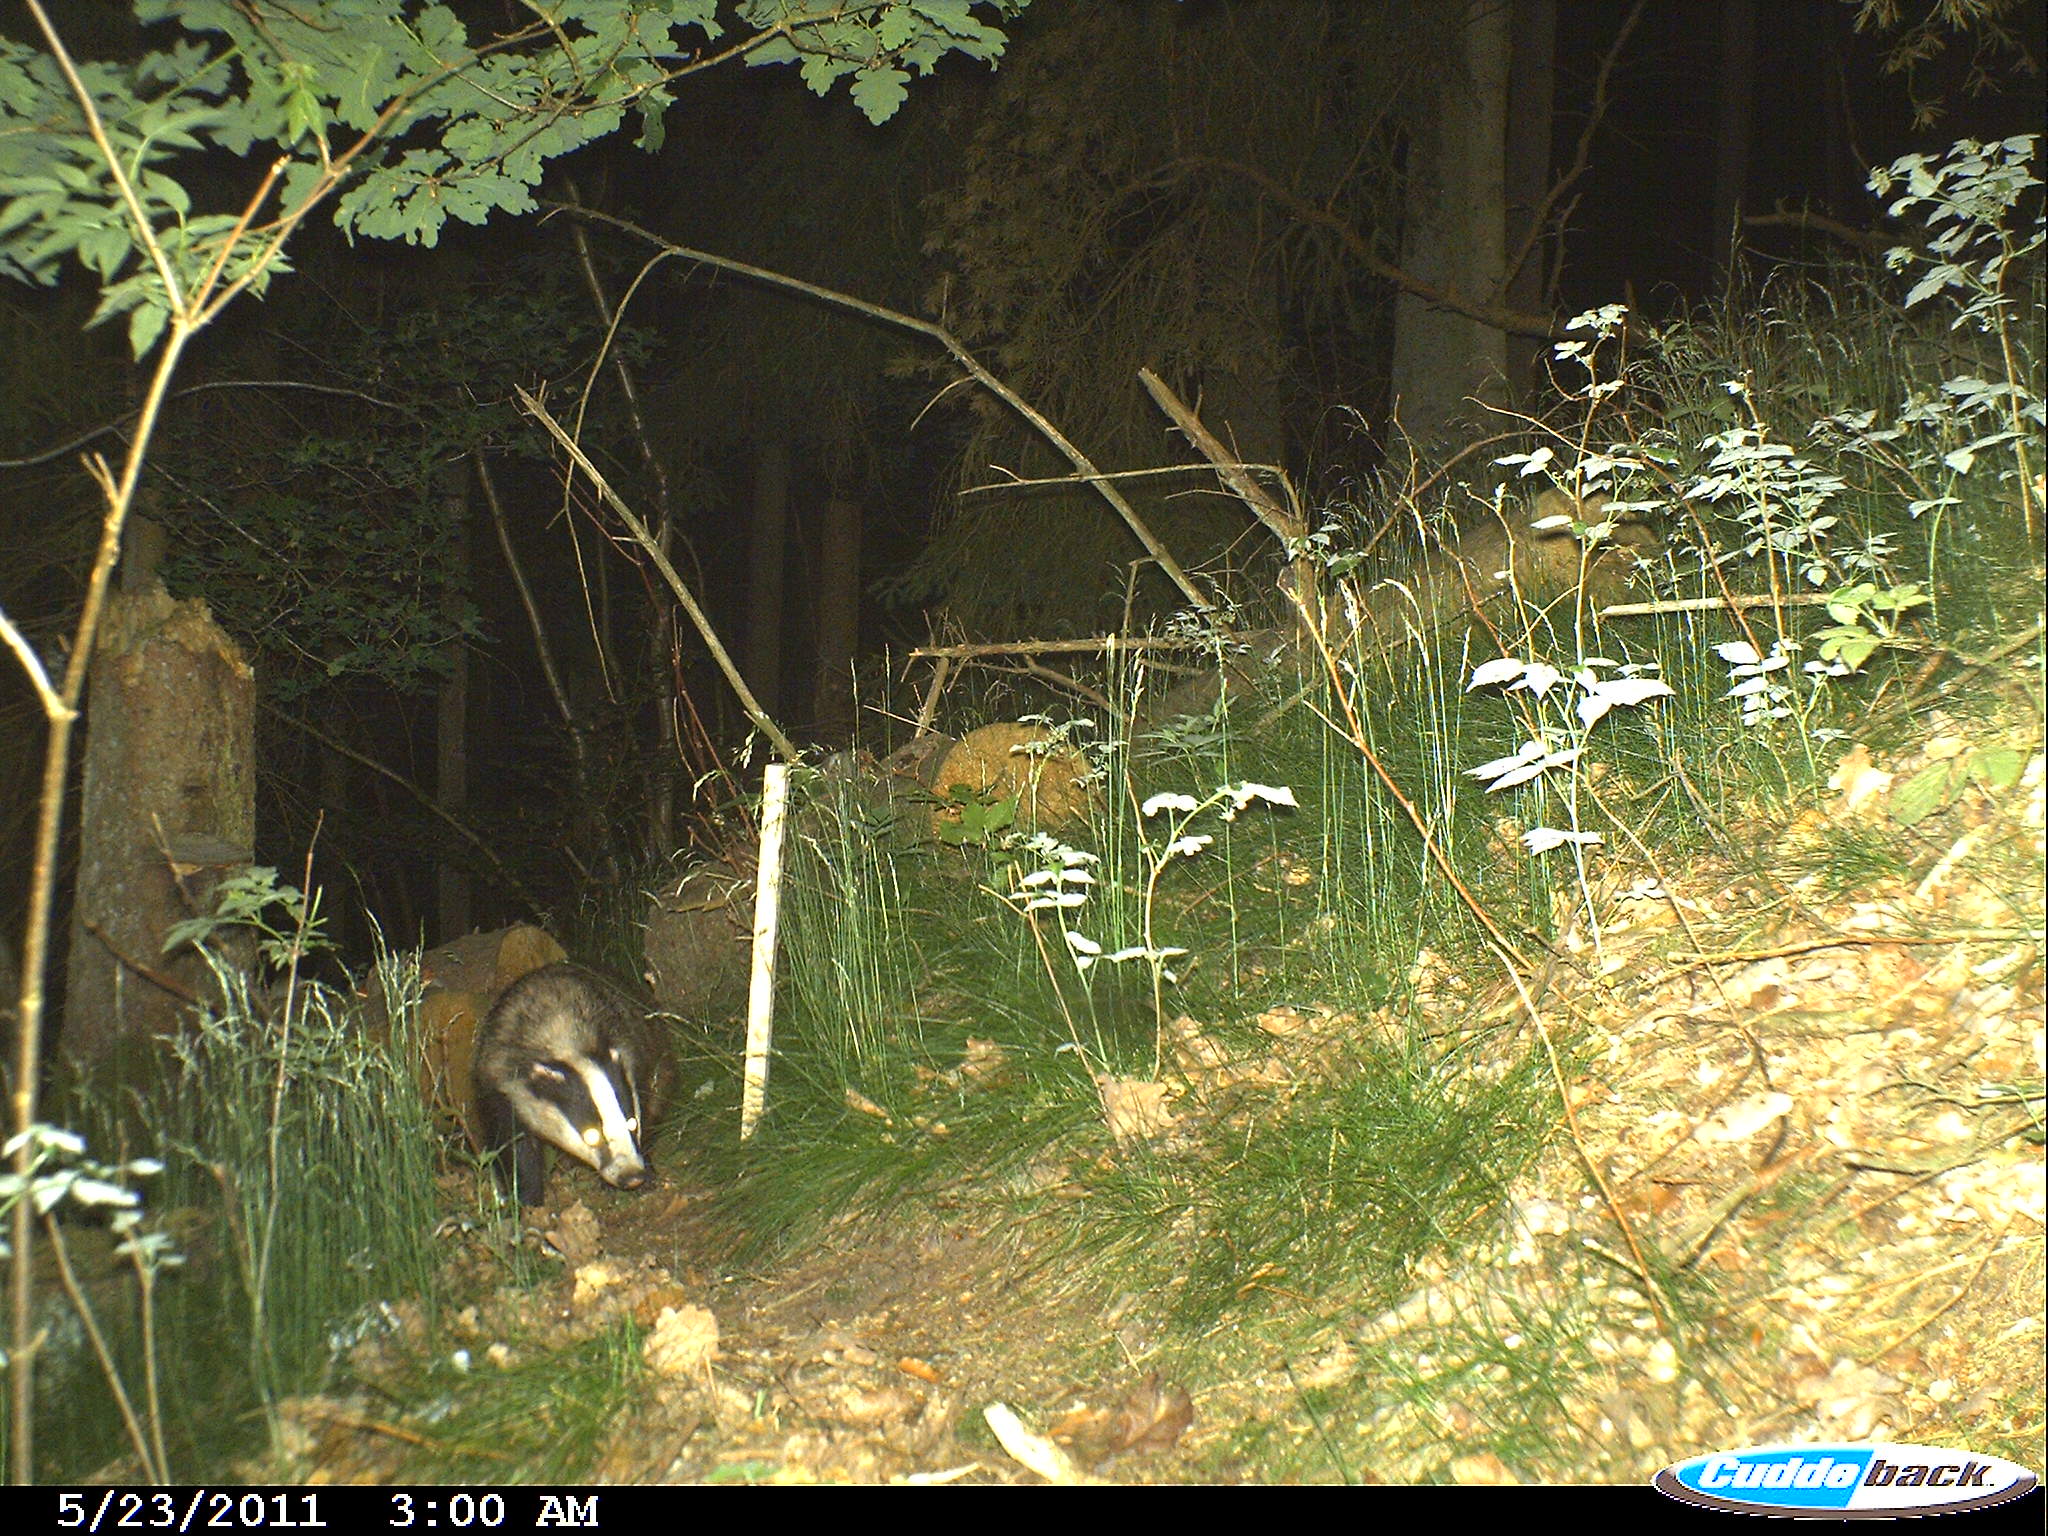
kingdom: Animalia
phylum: Chordata
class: Mammalia
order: Carnivora
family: Mustelidae
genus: Meles
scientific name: Meles meles
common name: Eurasian badger
